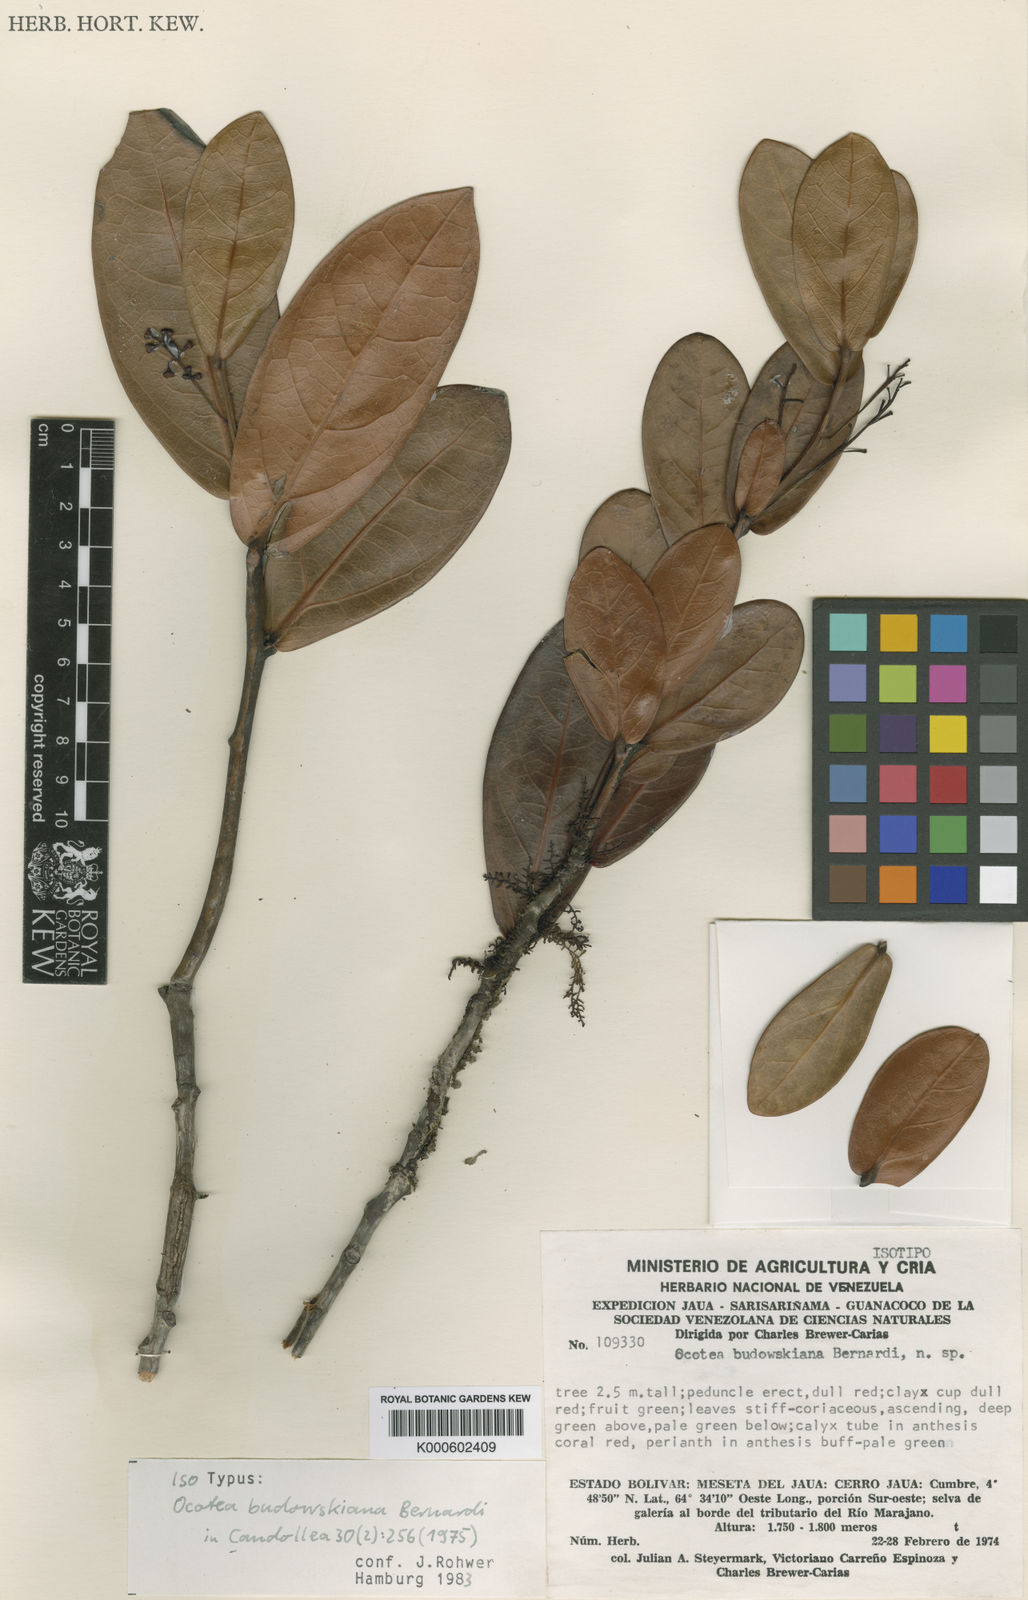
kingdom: Plantae
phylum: Tracheophyta
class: Magnoliopsida
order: Laurales
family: Lauraceae
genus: Ocotea
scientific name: Ocotea erectifolia
